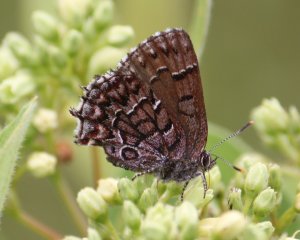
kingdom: Animalia
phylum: Arthropoda
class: Insecta
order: Lepidoptera
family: Lycaenidae
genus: Incisalia
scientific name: Incisalia niphon
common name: Eastern Pine Elfin
